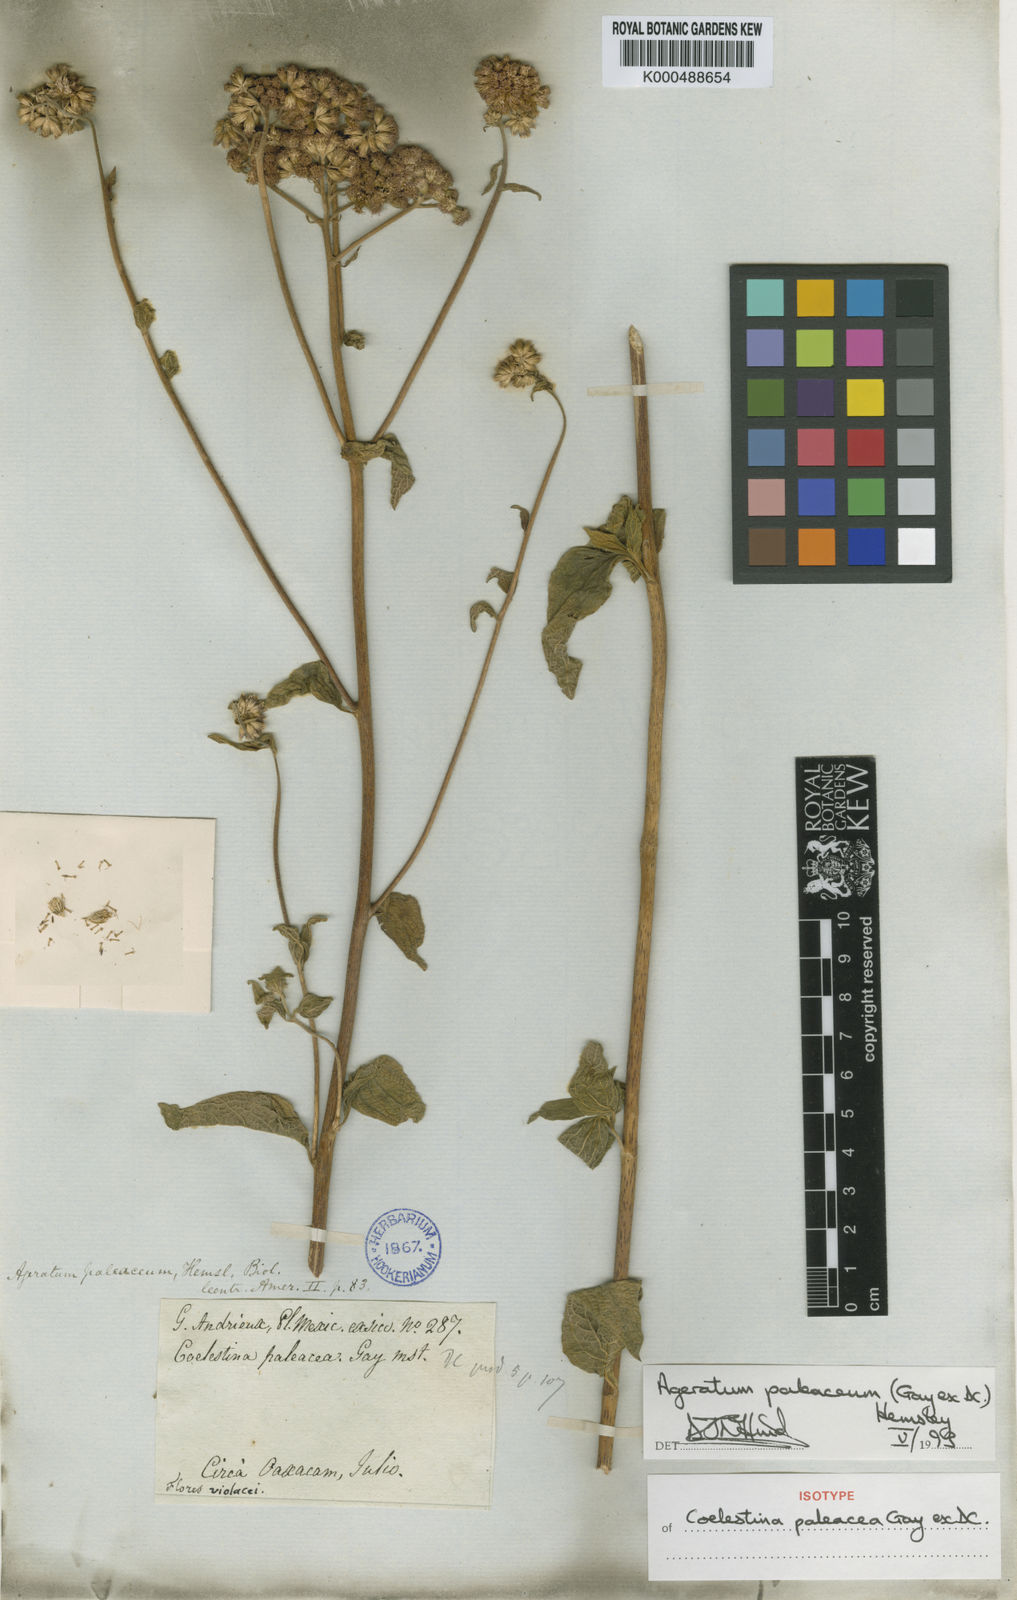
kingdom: Plantae
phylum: Tracheophyta
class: Magnoliopsida
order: Asterales
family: Asteraceae
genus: Ageratum
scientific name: Ageratum paleaceum
